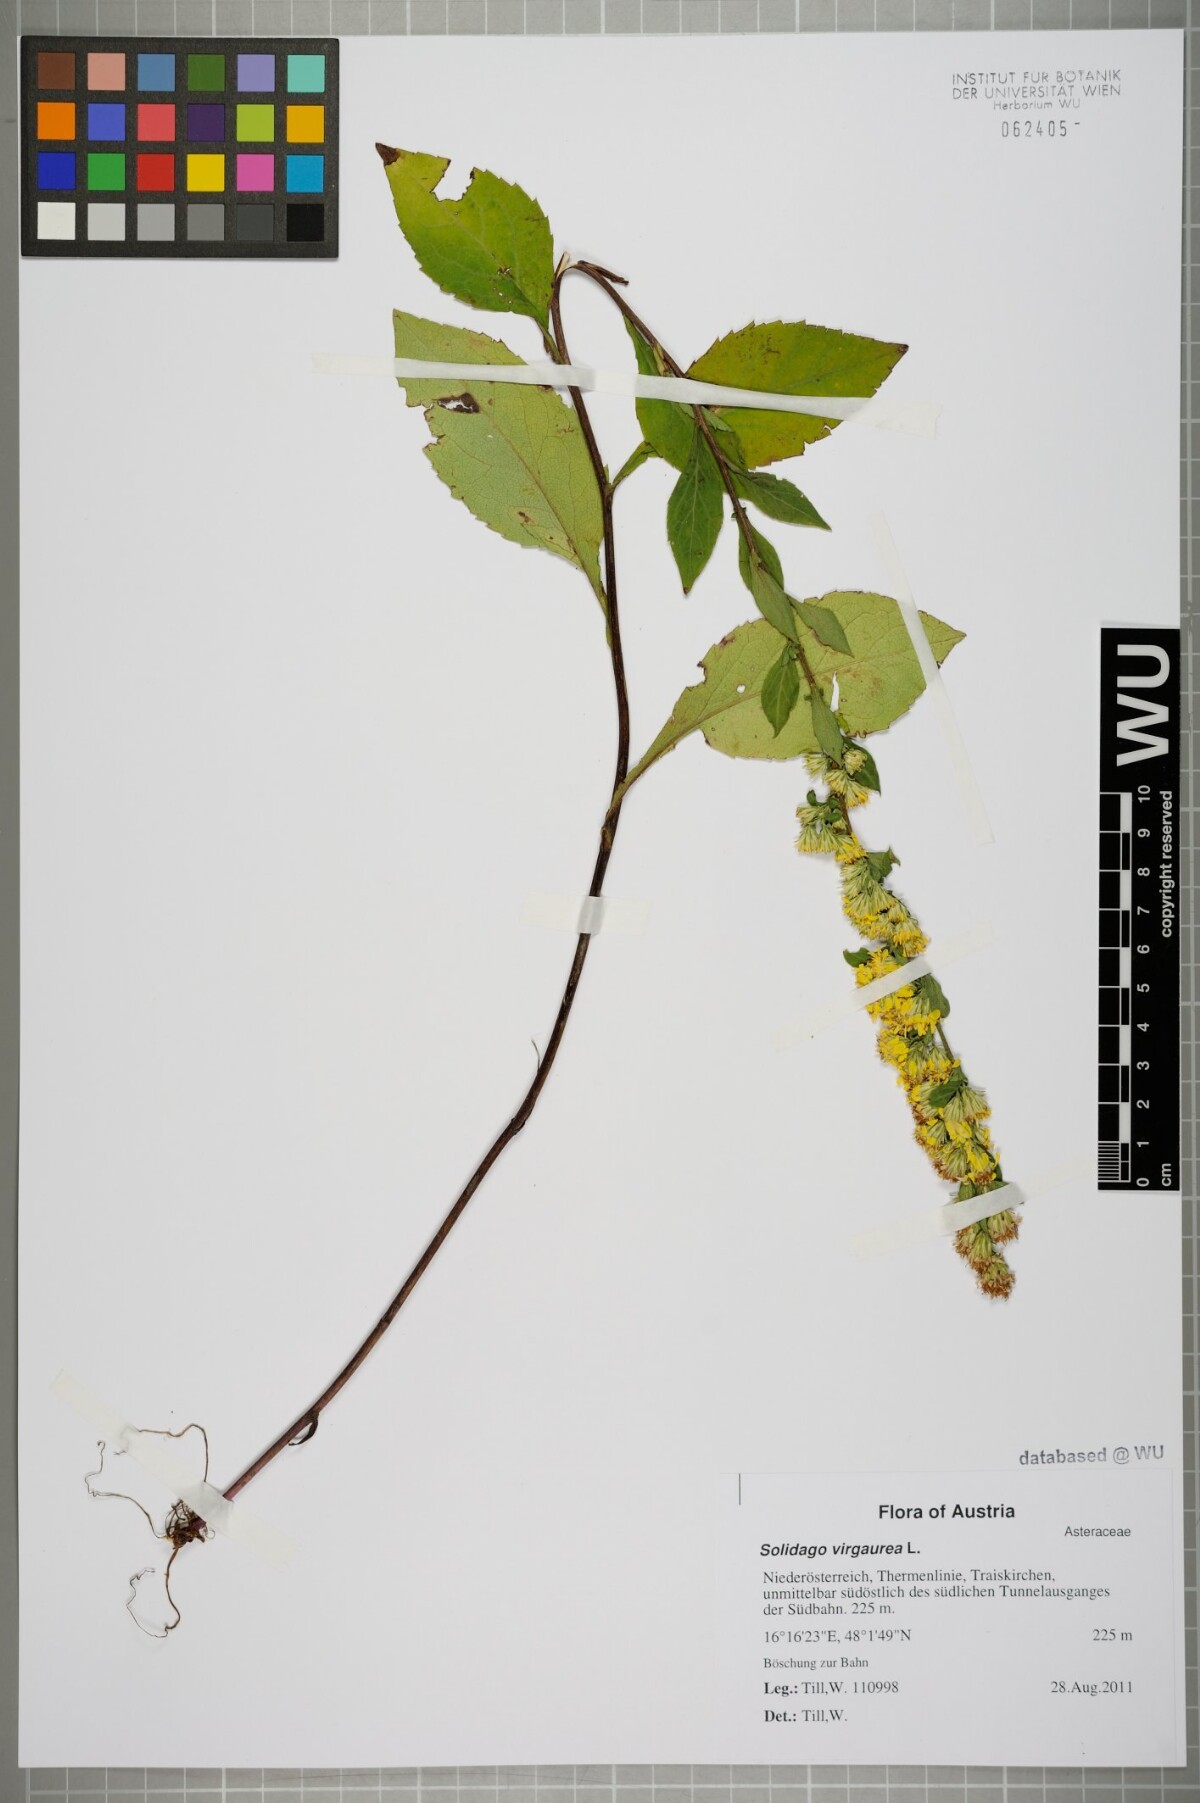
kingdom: Plantae
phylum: Tracheophyta
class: Magnoliopsida
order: Asterales
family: Asteraceae
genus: Solidago
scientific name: Solidago virgaurea
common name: Goldenrod
